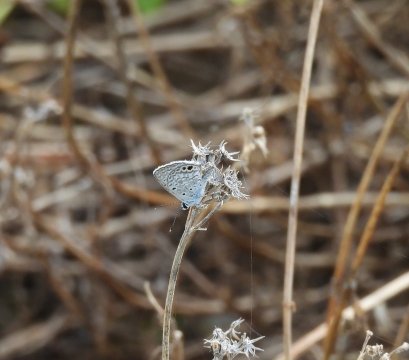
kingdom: Animalia
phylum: Arthropoda
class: Insecta
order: Lepidoptera
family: Lycaenidae
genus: Hemiargus
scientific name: Hemiargus ceraunus
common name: Ceraunus Blue
